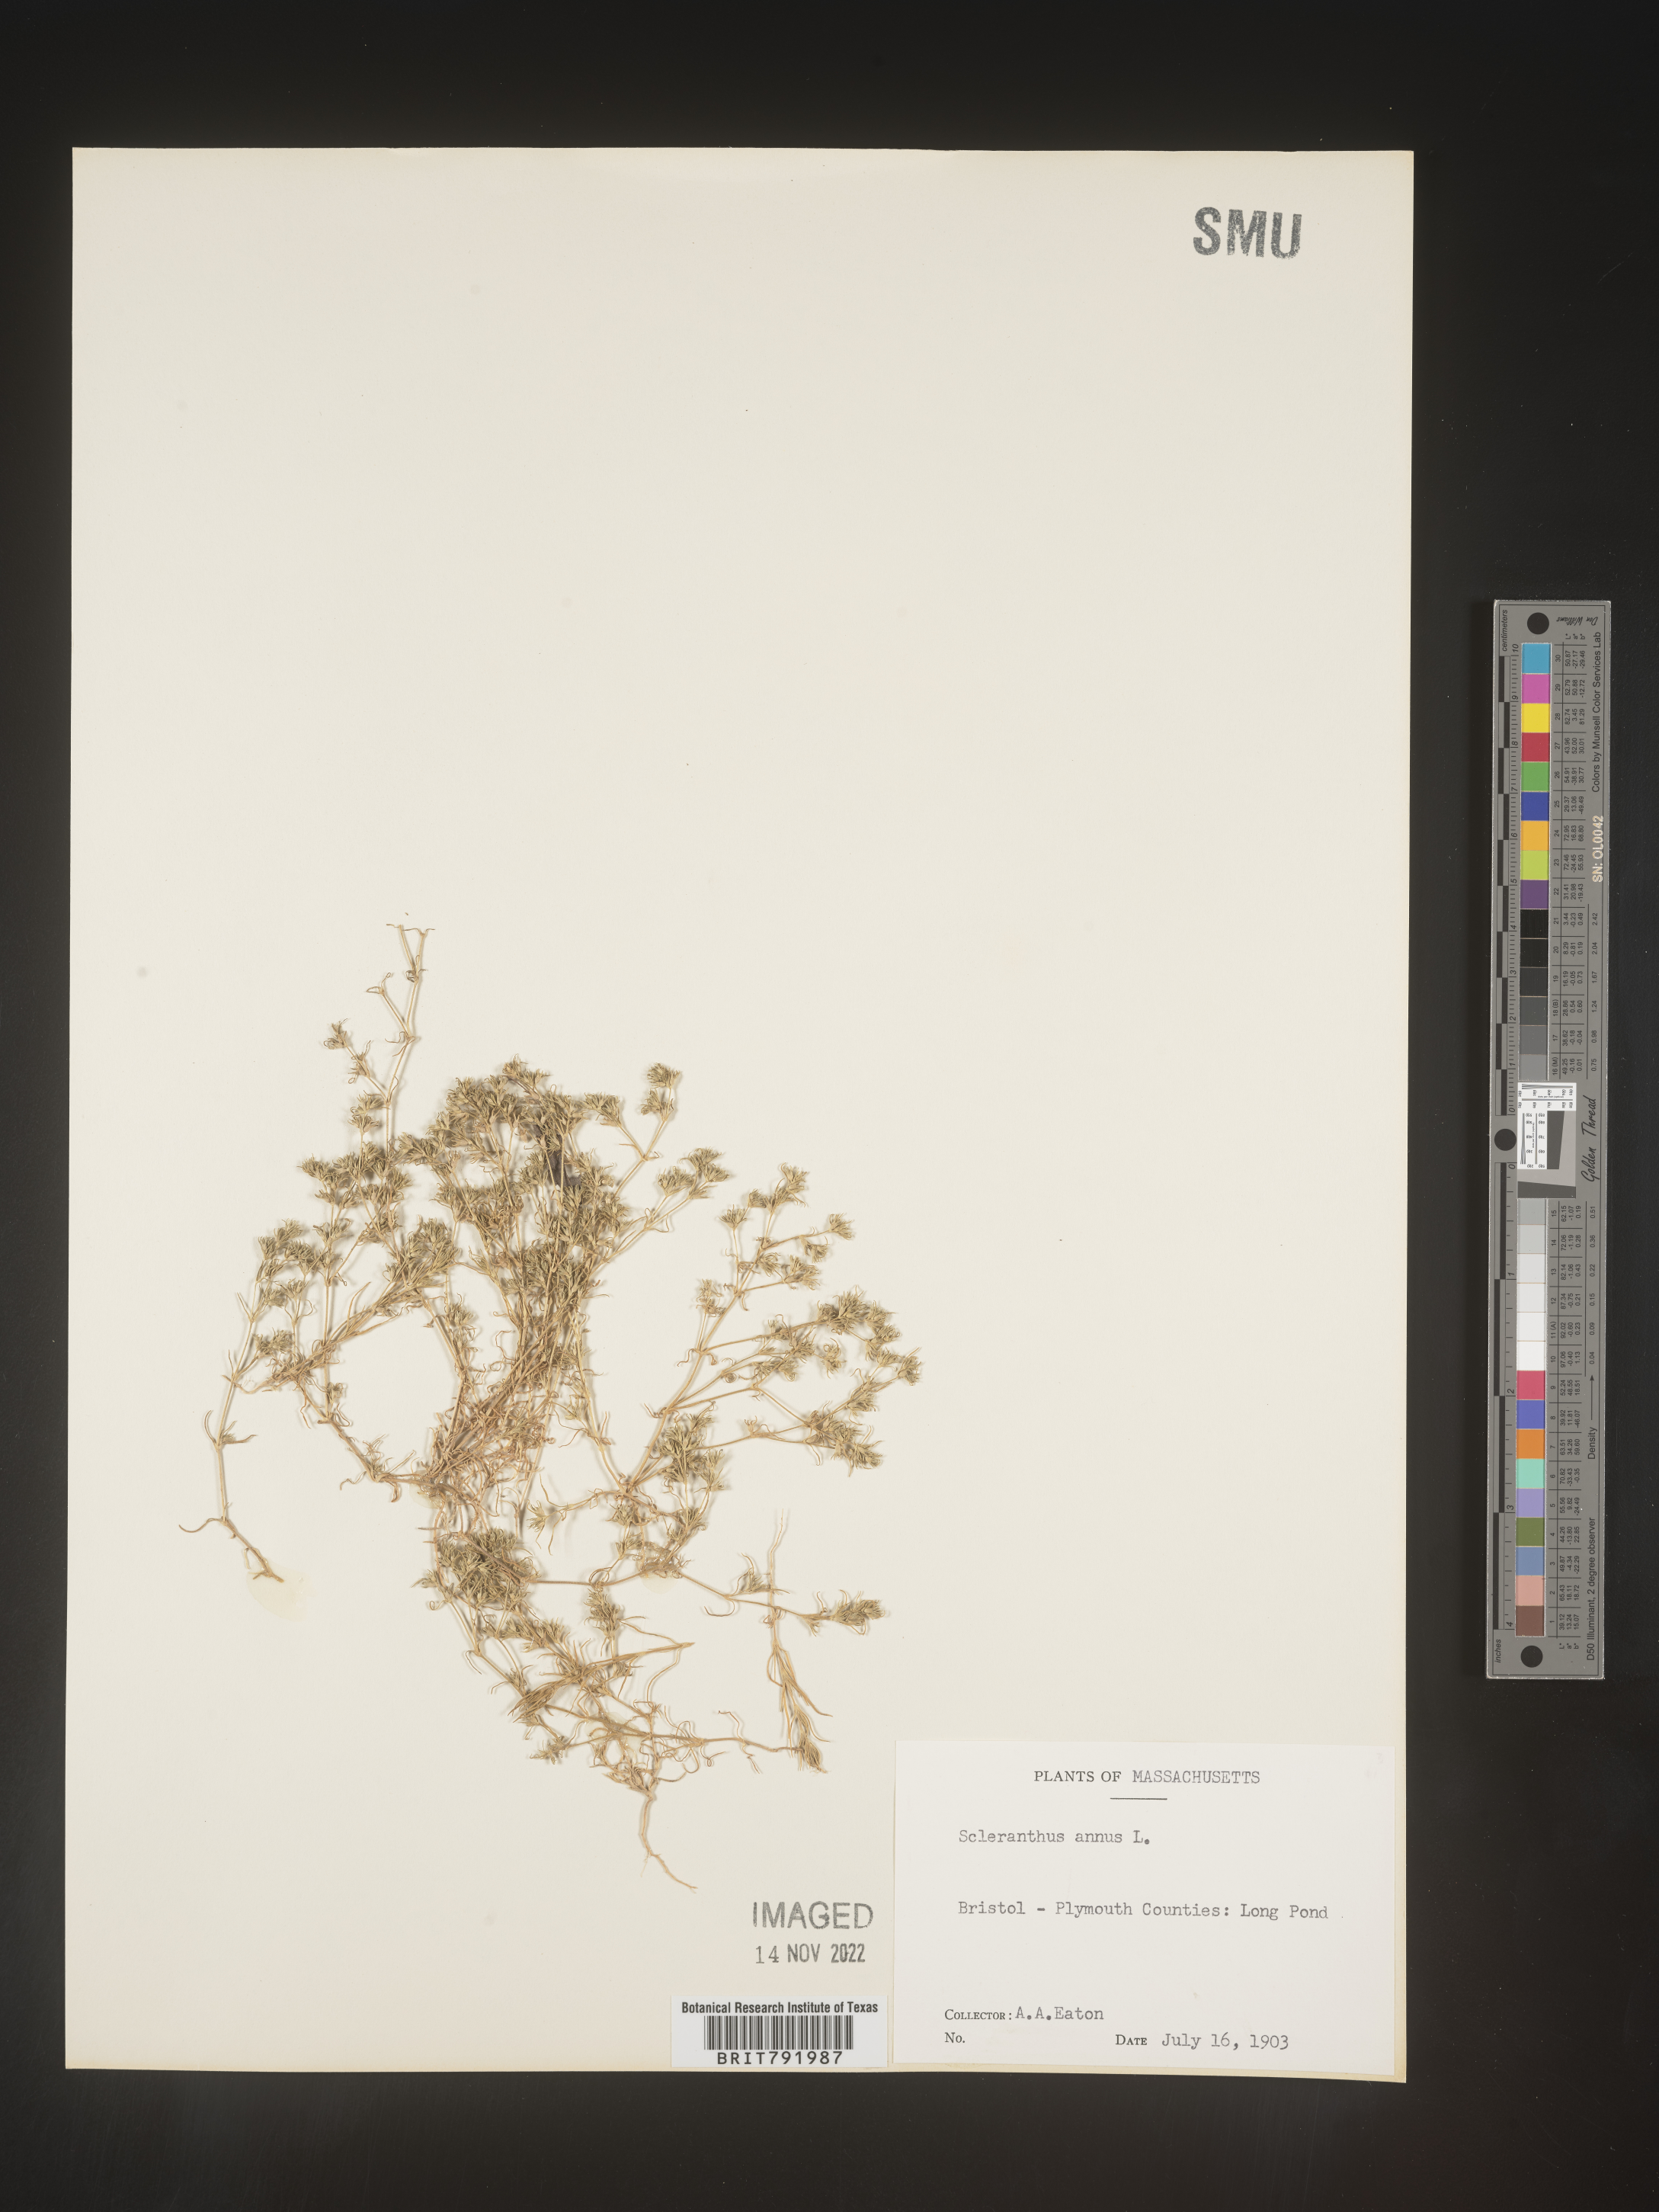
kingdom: Plantae
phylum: Tracheophyta
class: Magnoliopsida
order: Caryophyllales
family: Caryophyllaceae
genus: Scleranthus
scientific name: Scleranthus
